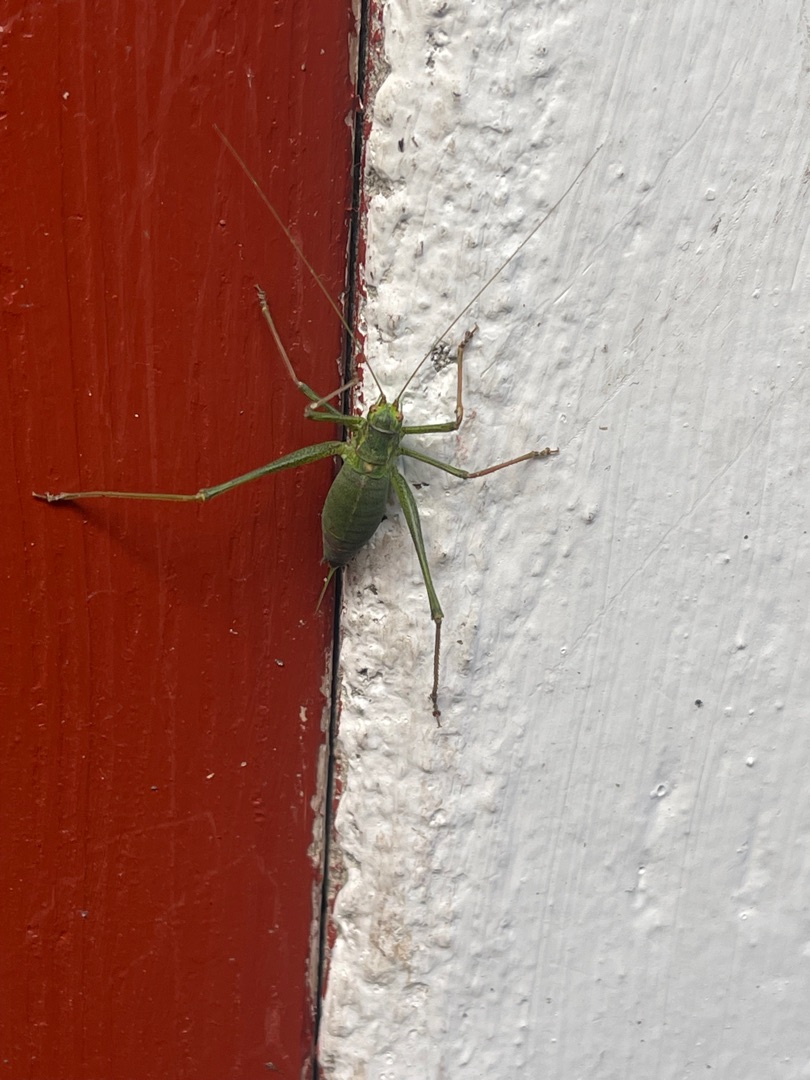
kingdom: Animalia
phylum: Arthropoda
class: Insecta
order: Orthoptera
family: Tettigoniidae
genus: Leptophyes
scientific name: Leptophyes punctatissima
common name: Krumknivgræshoppe
